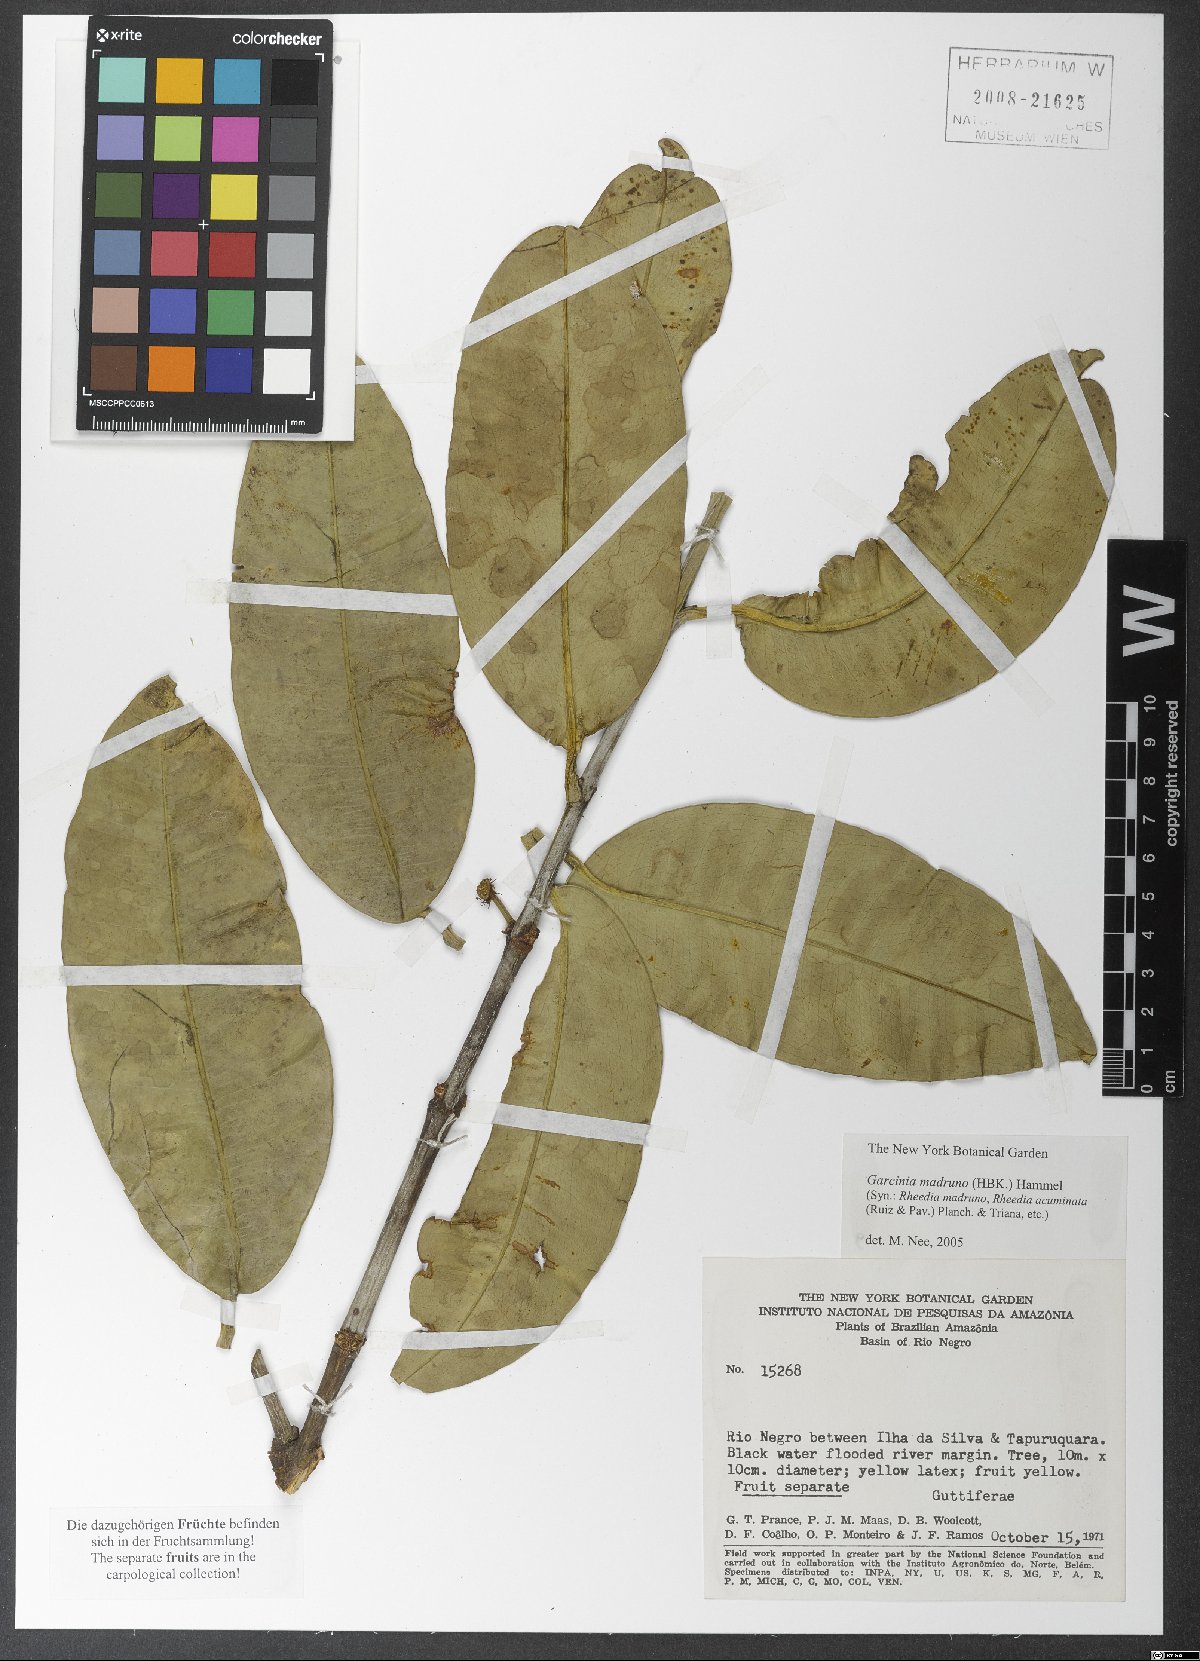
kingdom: Plantae
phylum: Tracheophyta
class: Magnoliopsida
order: Malpighiales
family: Clusiaceae
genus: Garcinia
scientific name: Garcinia madruno
